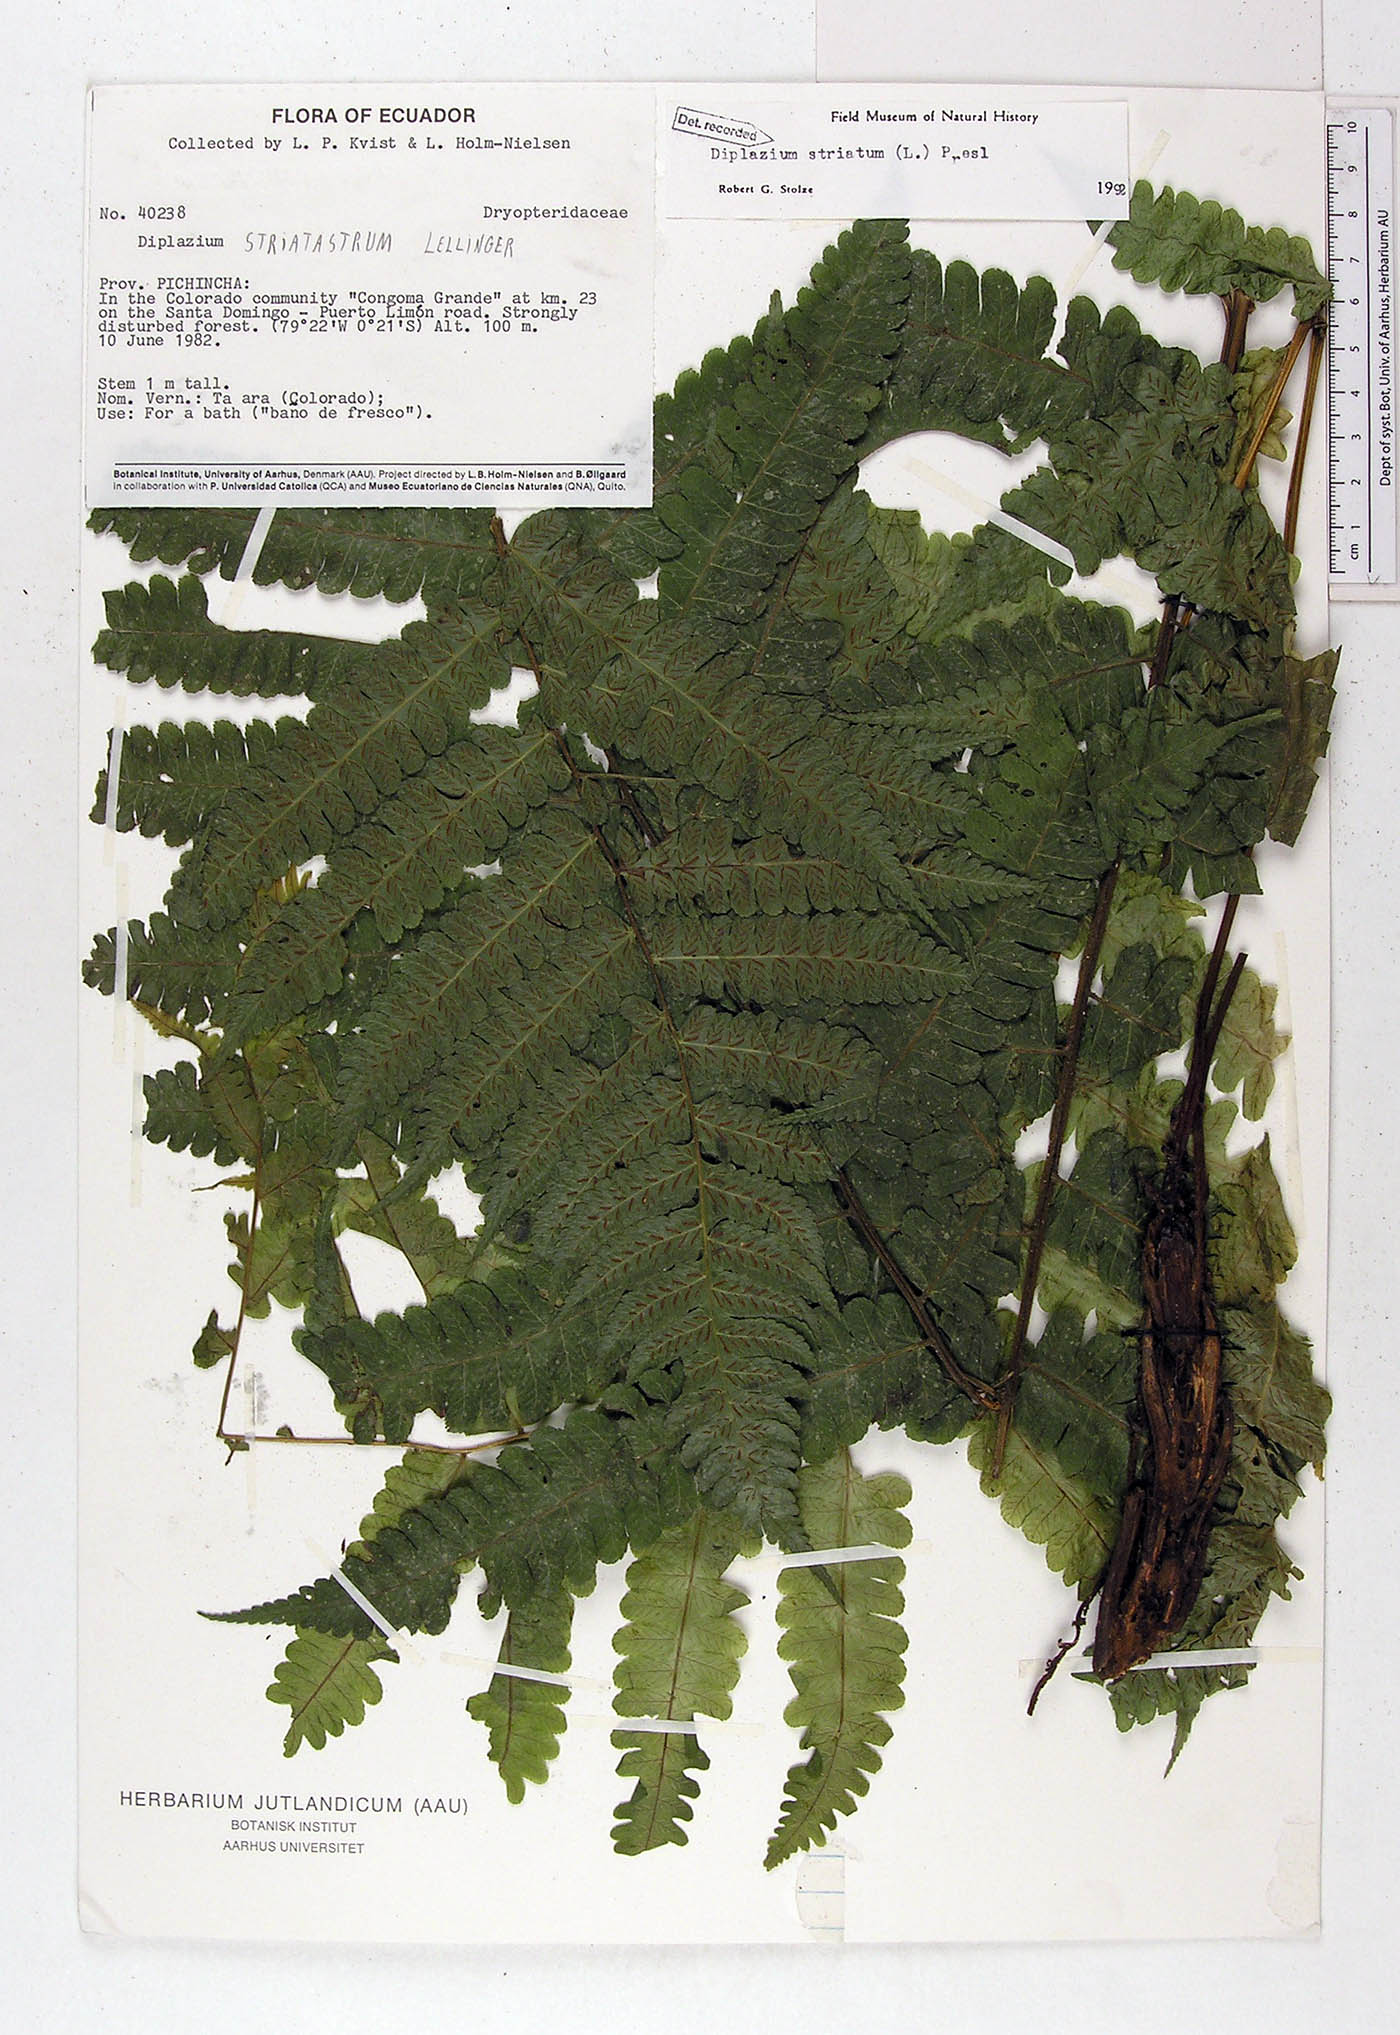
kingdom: Plantae
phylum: Tracheophyta
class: Polypodiopsida
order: Polypodiales
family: Athyriaceae
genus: Diplazium
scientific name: Diplazium striatum
